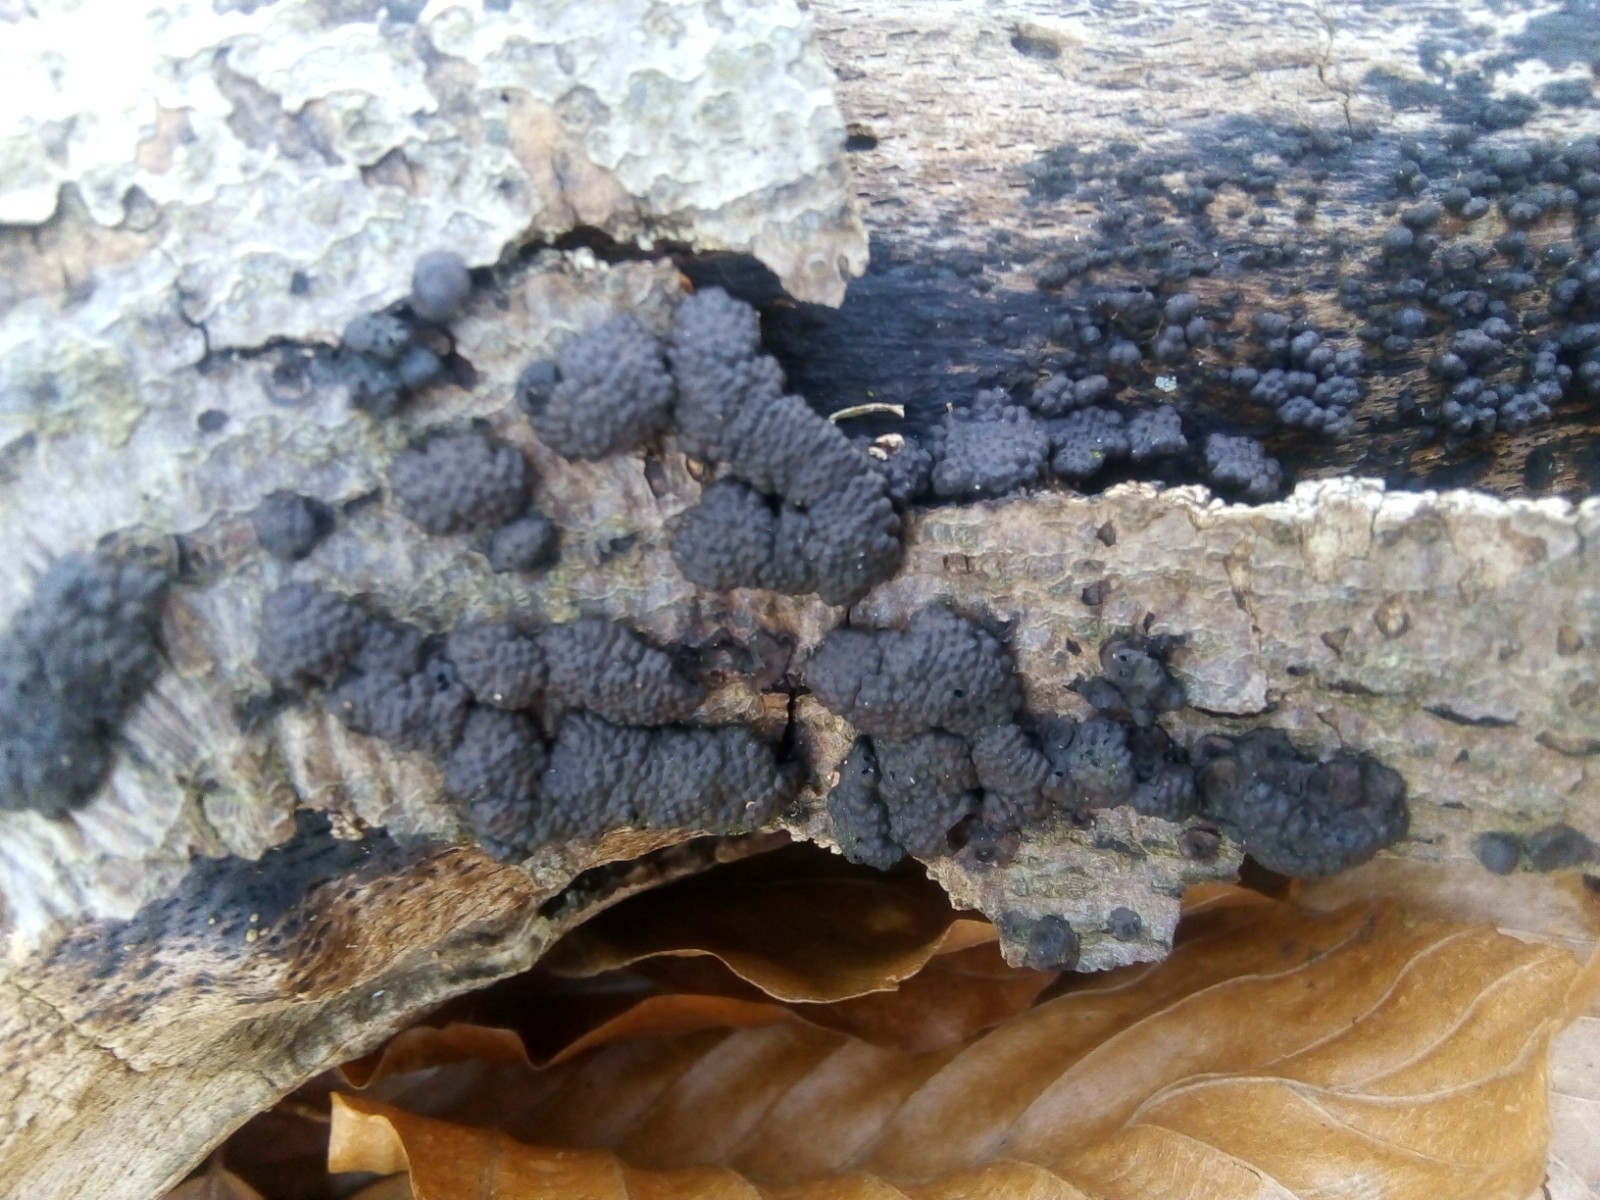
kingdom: Fungi
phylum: Ascomycota
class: Sordariomycetes
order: Xylariales
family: Hypoxylaceae
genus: Jackrogersella
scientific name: Jackrogersella cohaerens
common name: sammenflydende kulbær
